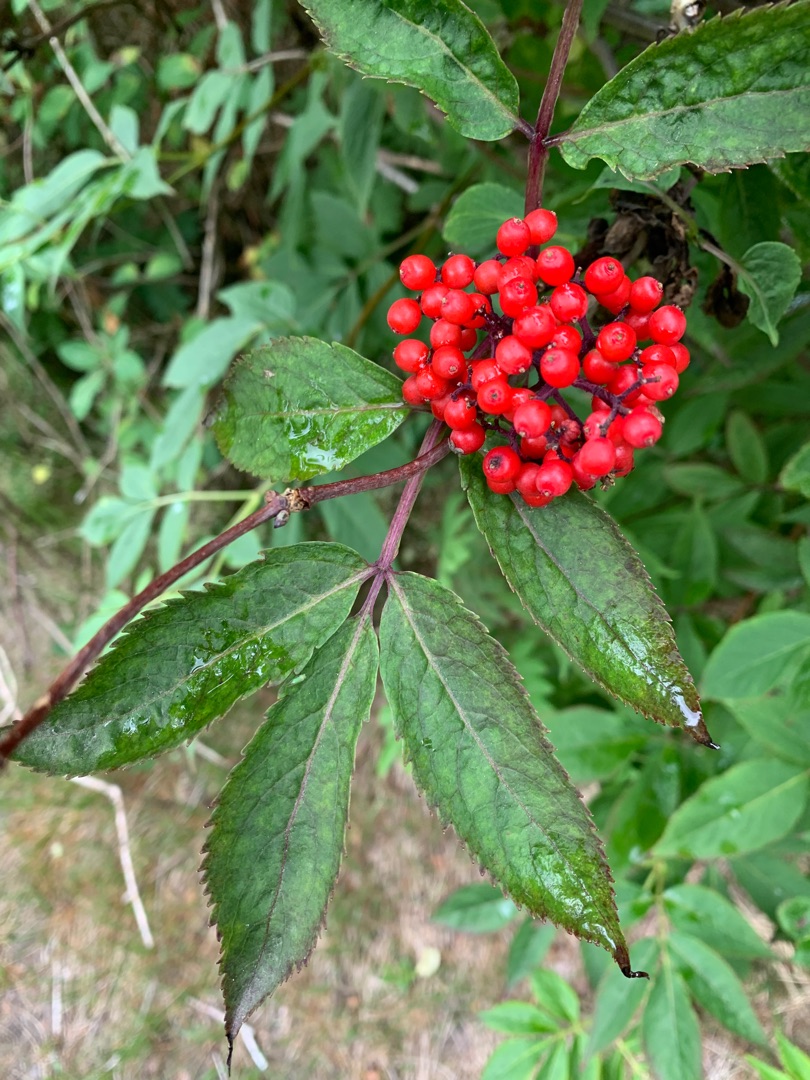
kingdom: Plantae
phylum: Tracheophyta
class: Magnoliopsida
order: Dipsacales
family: Viburnaceae
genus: Sambucus
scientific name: Sambucus racemosa
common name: Drue-hyld
